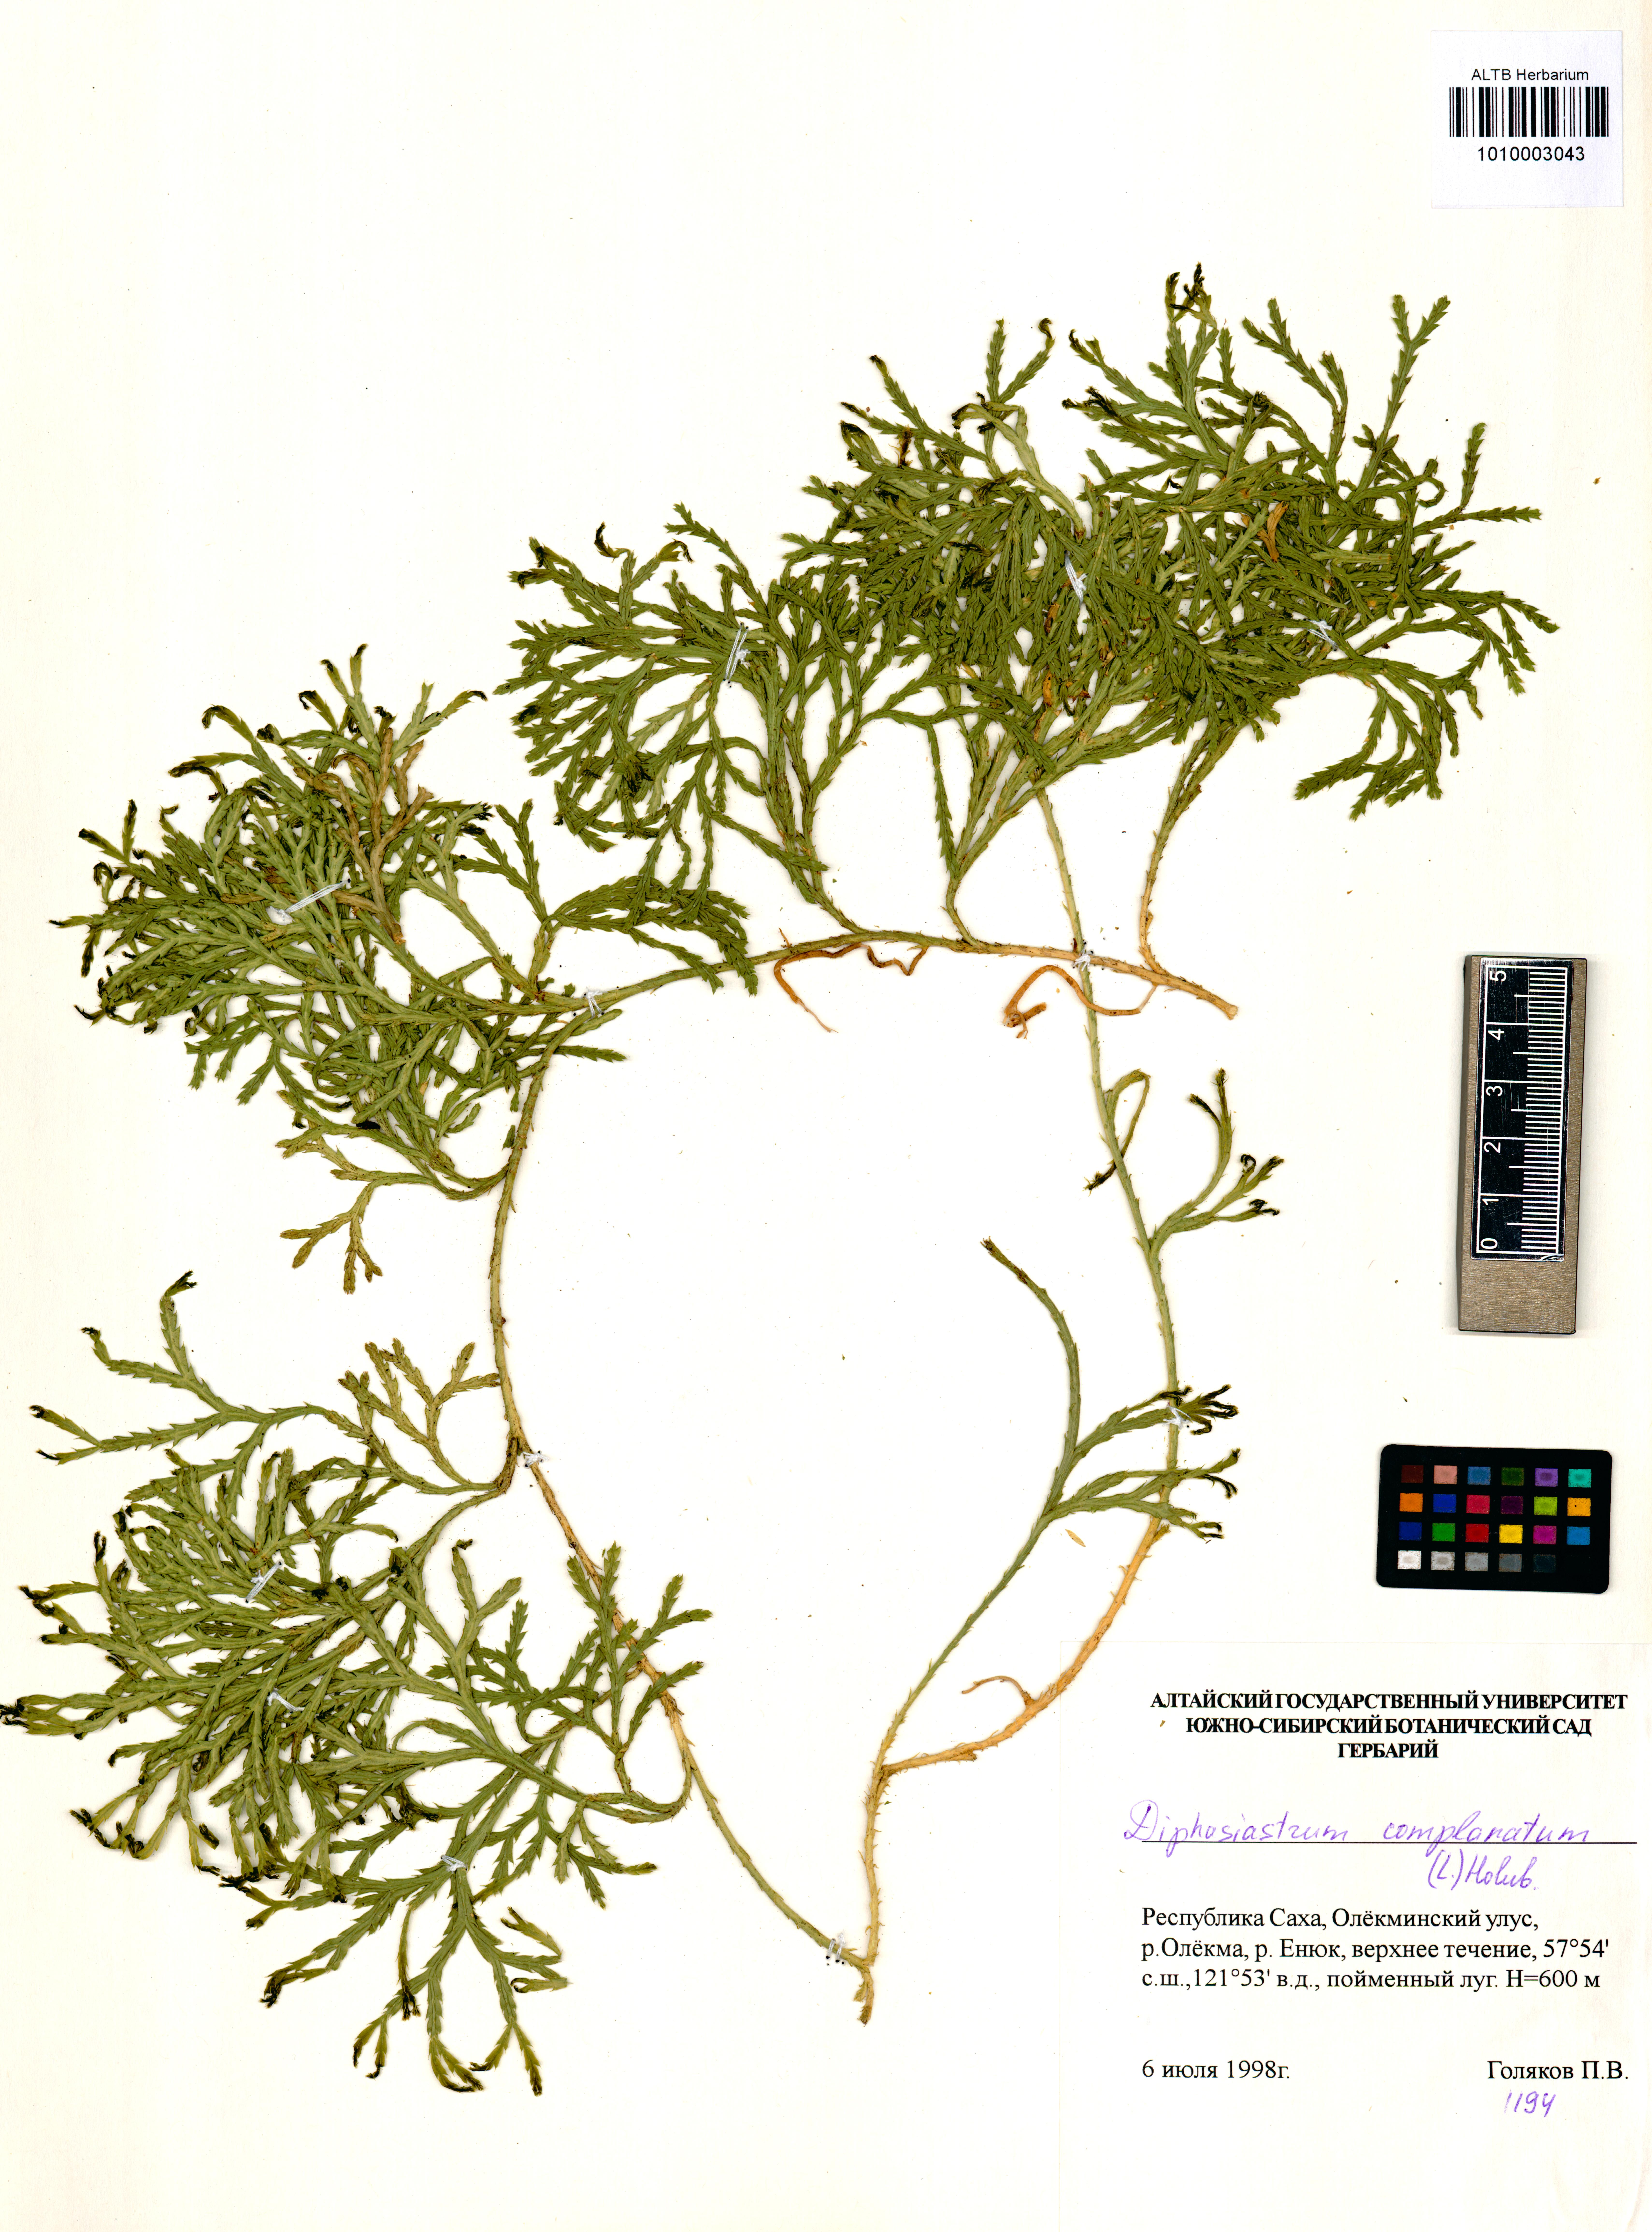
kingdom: Plantae
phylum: Tracheophyta
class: Lycopodiopsida
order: Lycopodiales
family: Lycopodiaceae
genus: Diphasiastrum
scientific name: Diphasiastrum complanatum
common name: Northern running-pine
